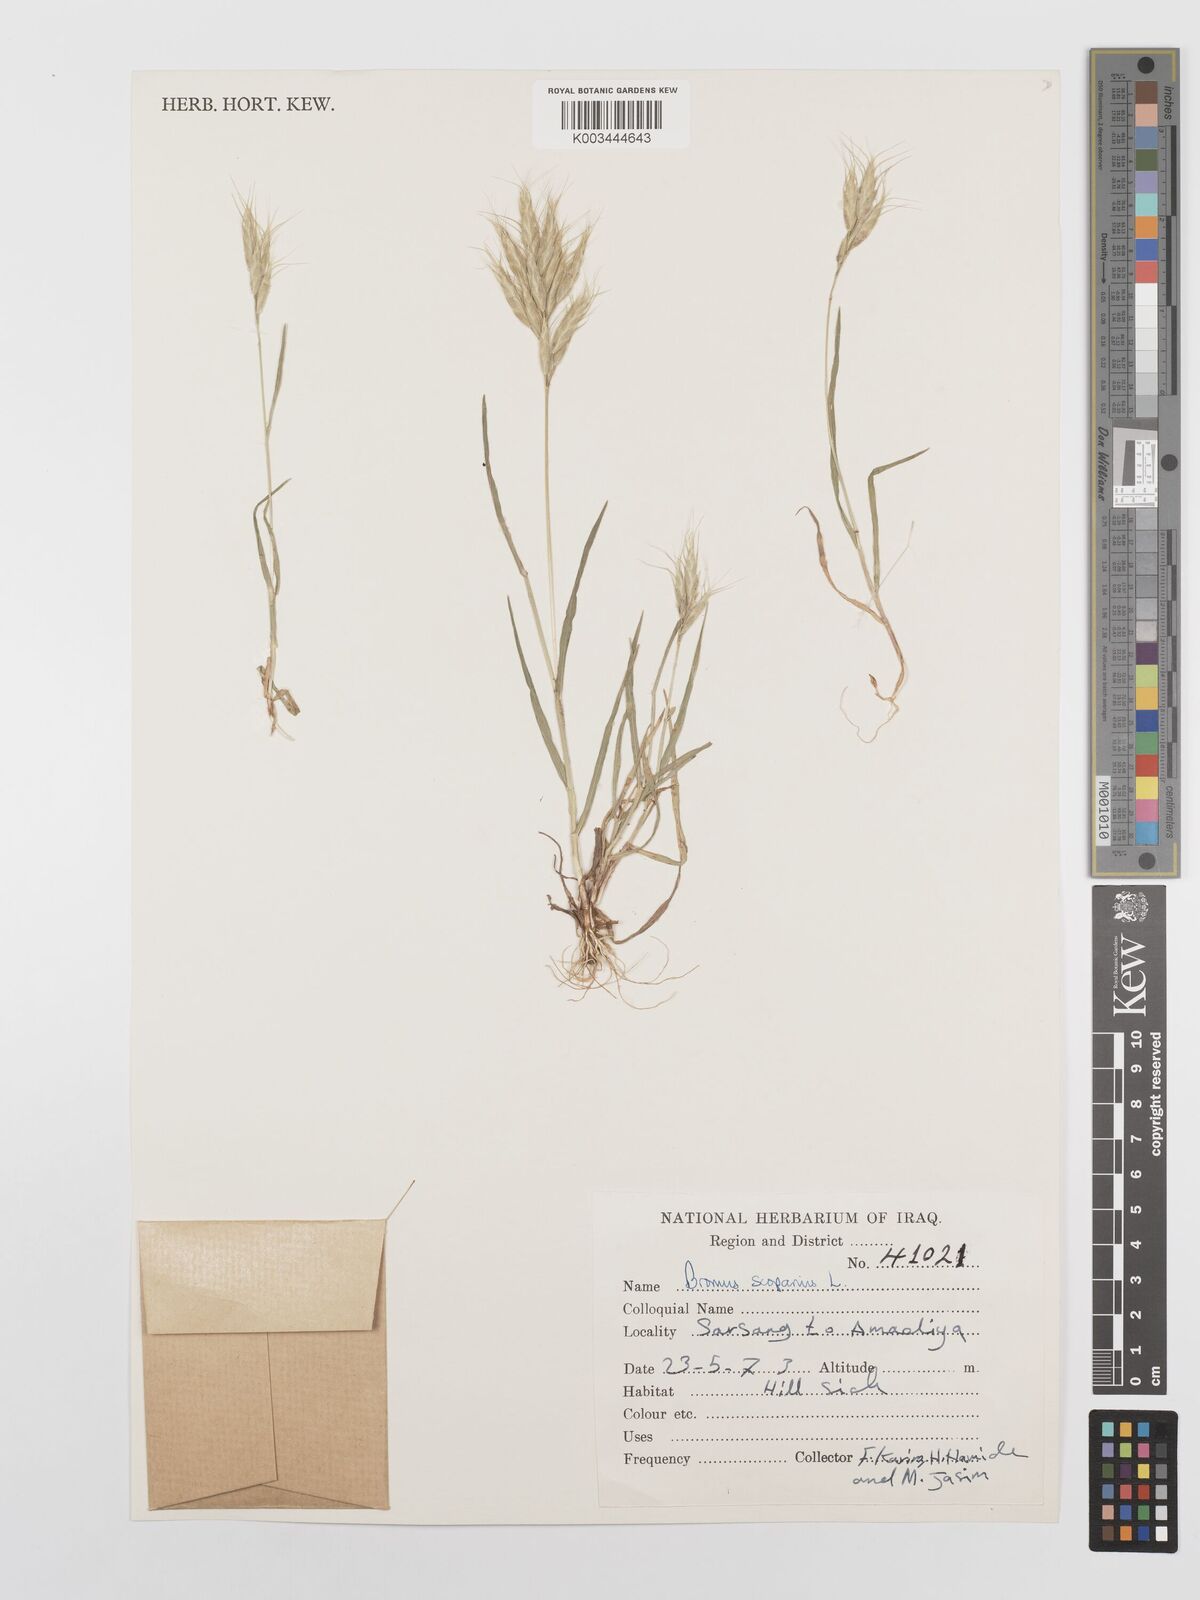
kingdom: Plantae
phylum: Tracheophyta
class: Liliopsida
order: Poales
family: Poaceae
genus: Bromus
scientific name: Bromus scoparius
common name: Broom brome
